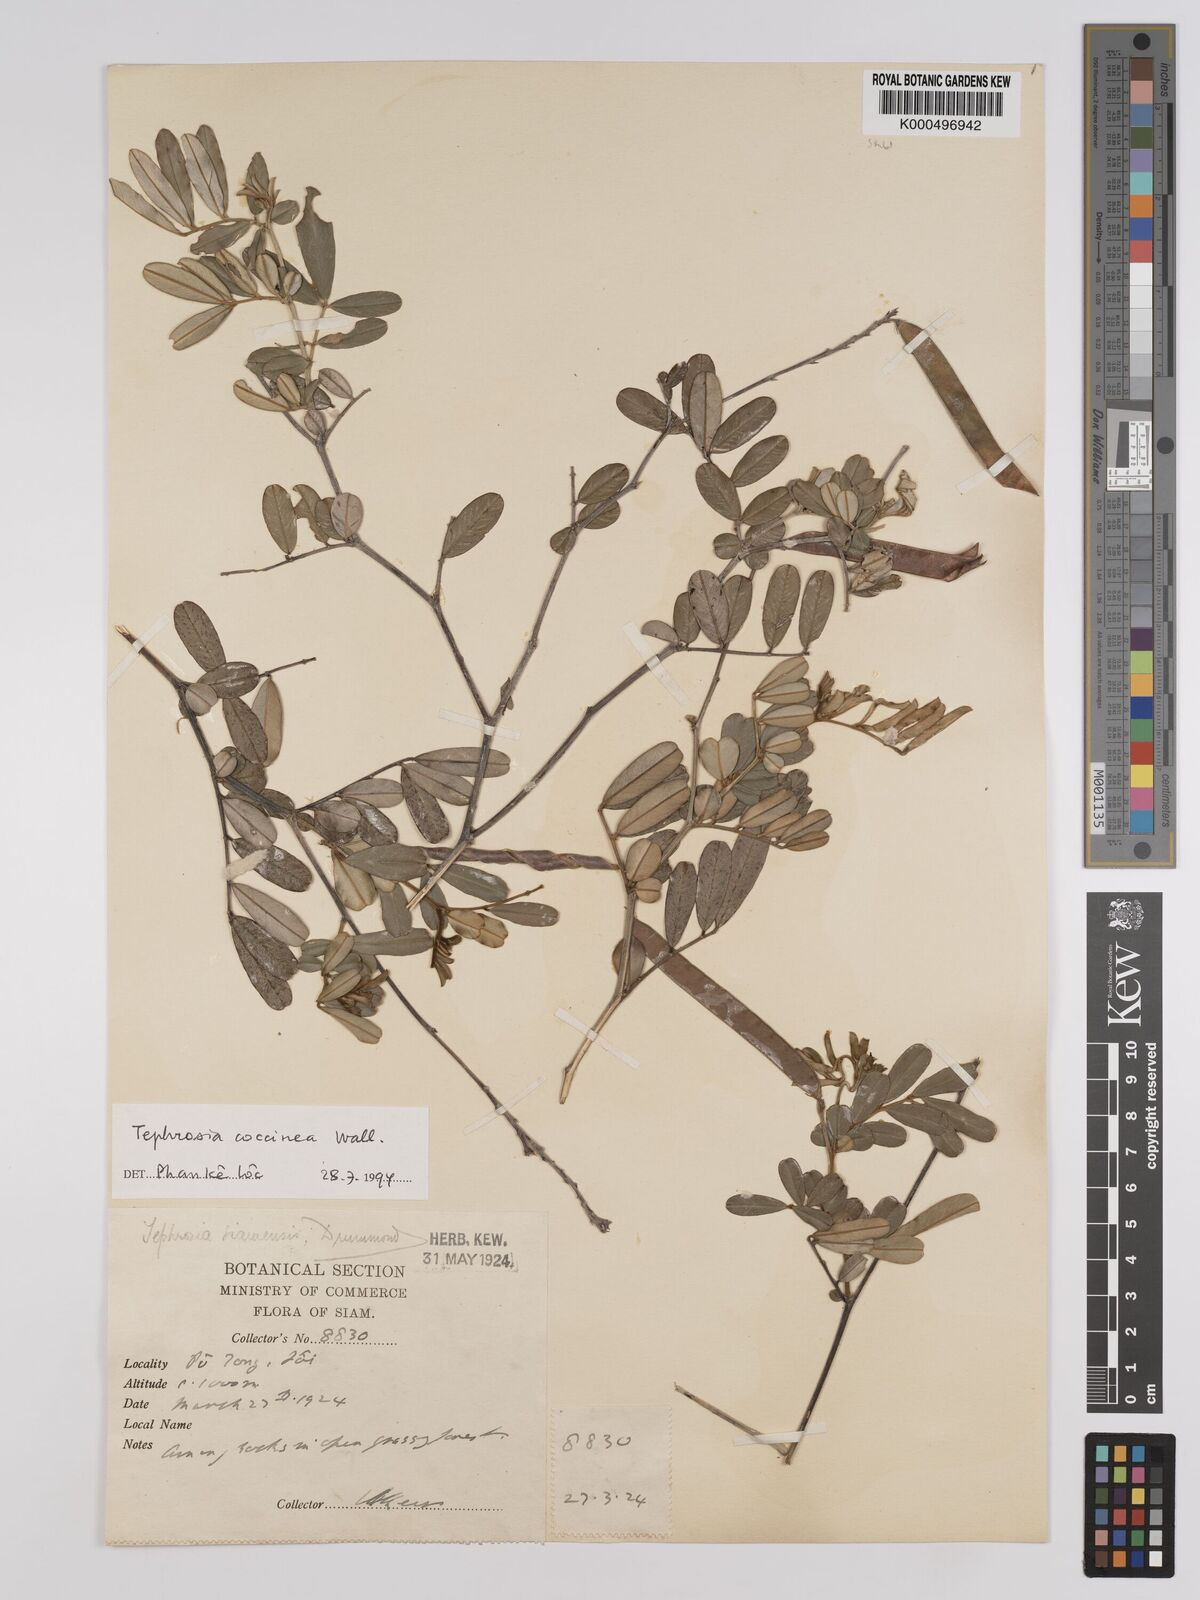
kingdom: Plantae
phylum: Tracheophyta
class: Magnoliopsida
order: Fabales
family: Fabaceae
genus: Tephrosia
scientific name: Tephrosia coccinea
